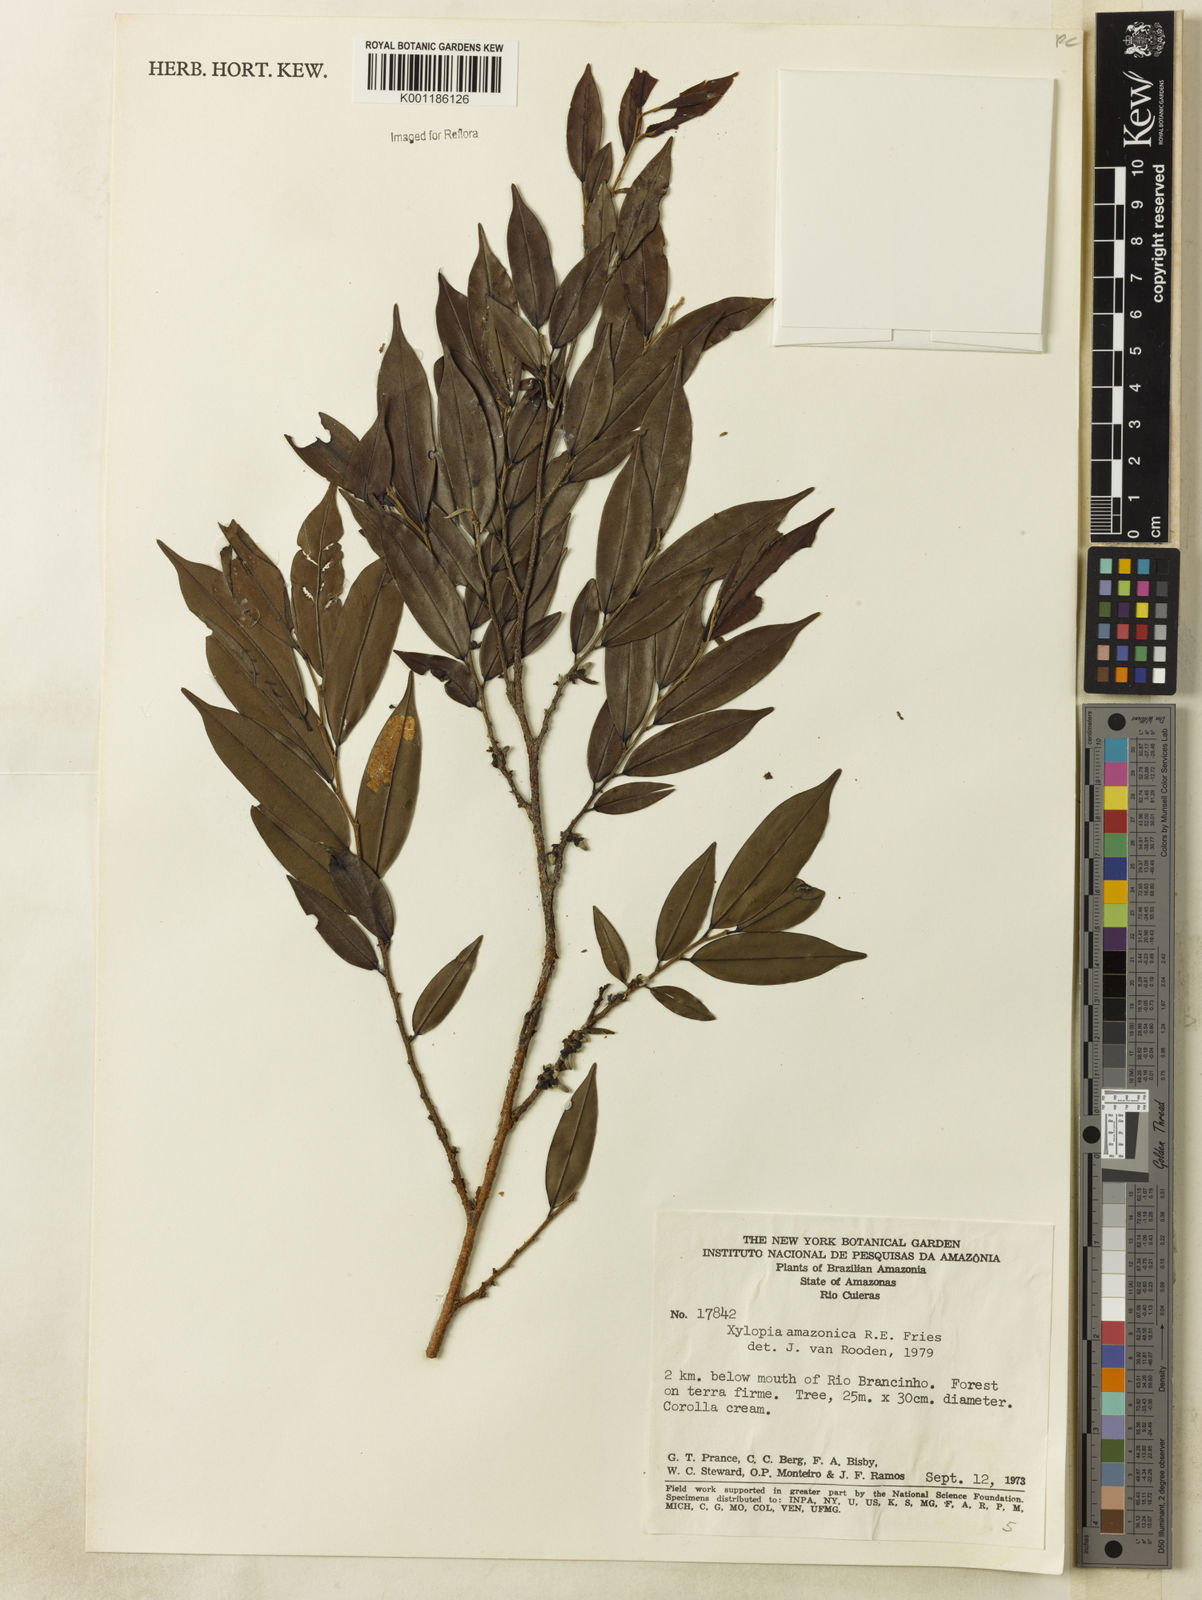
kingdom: Plantae
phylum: Tracheophyta
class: Magnoliopsida
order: Magnoliales
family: Annonaceae
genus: Xylopia
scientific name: Xylopia amazonica
